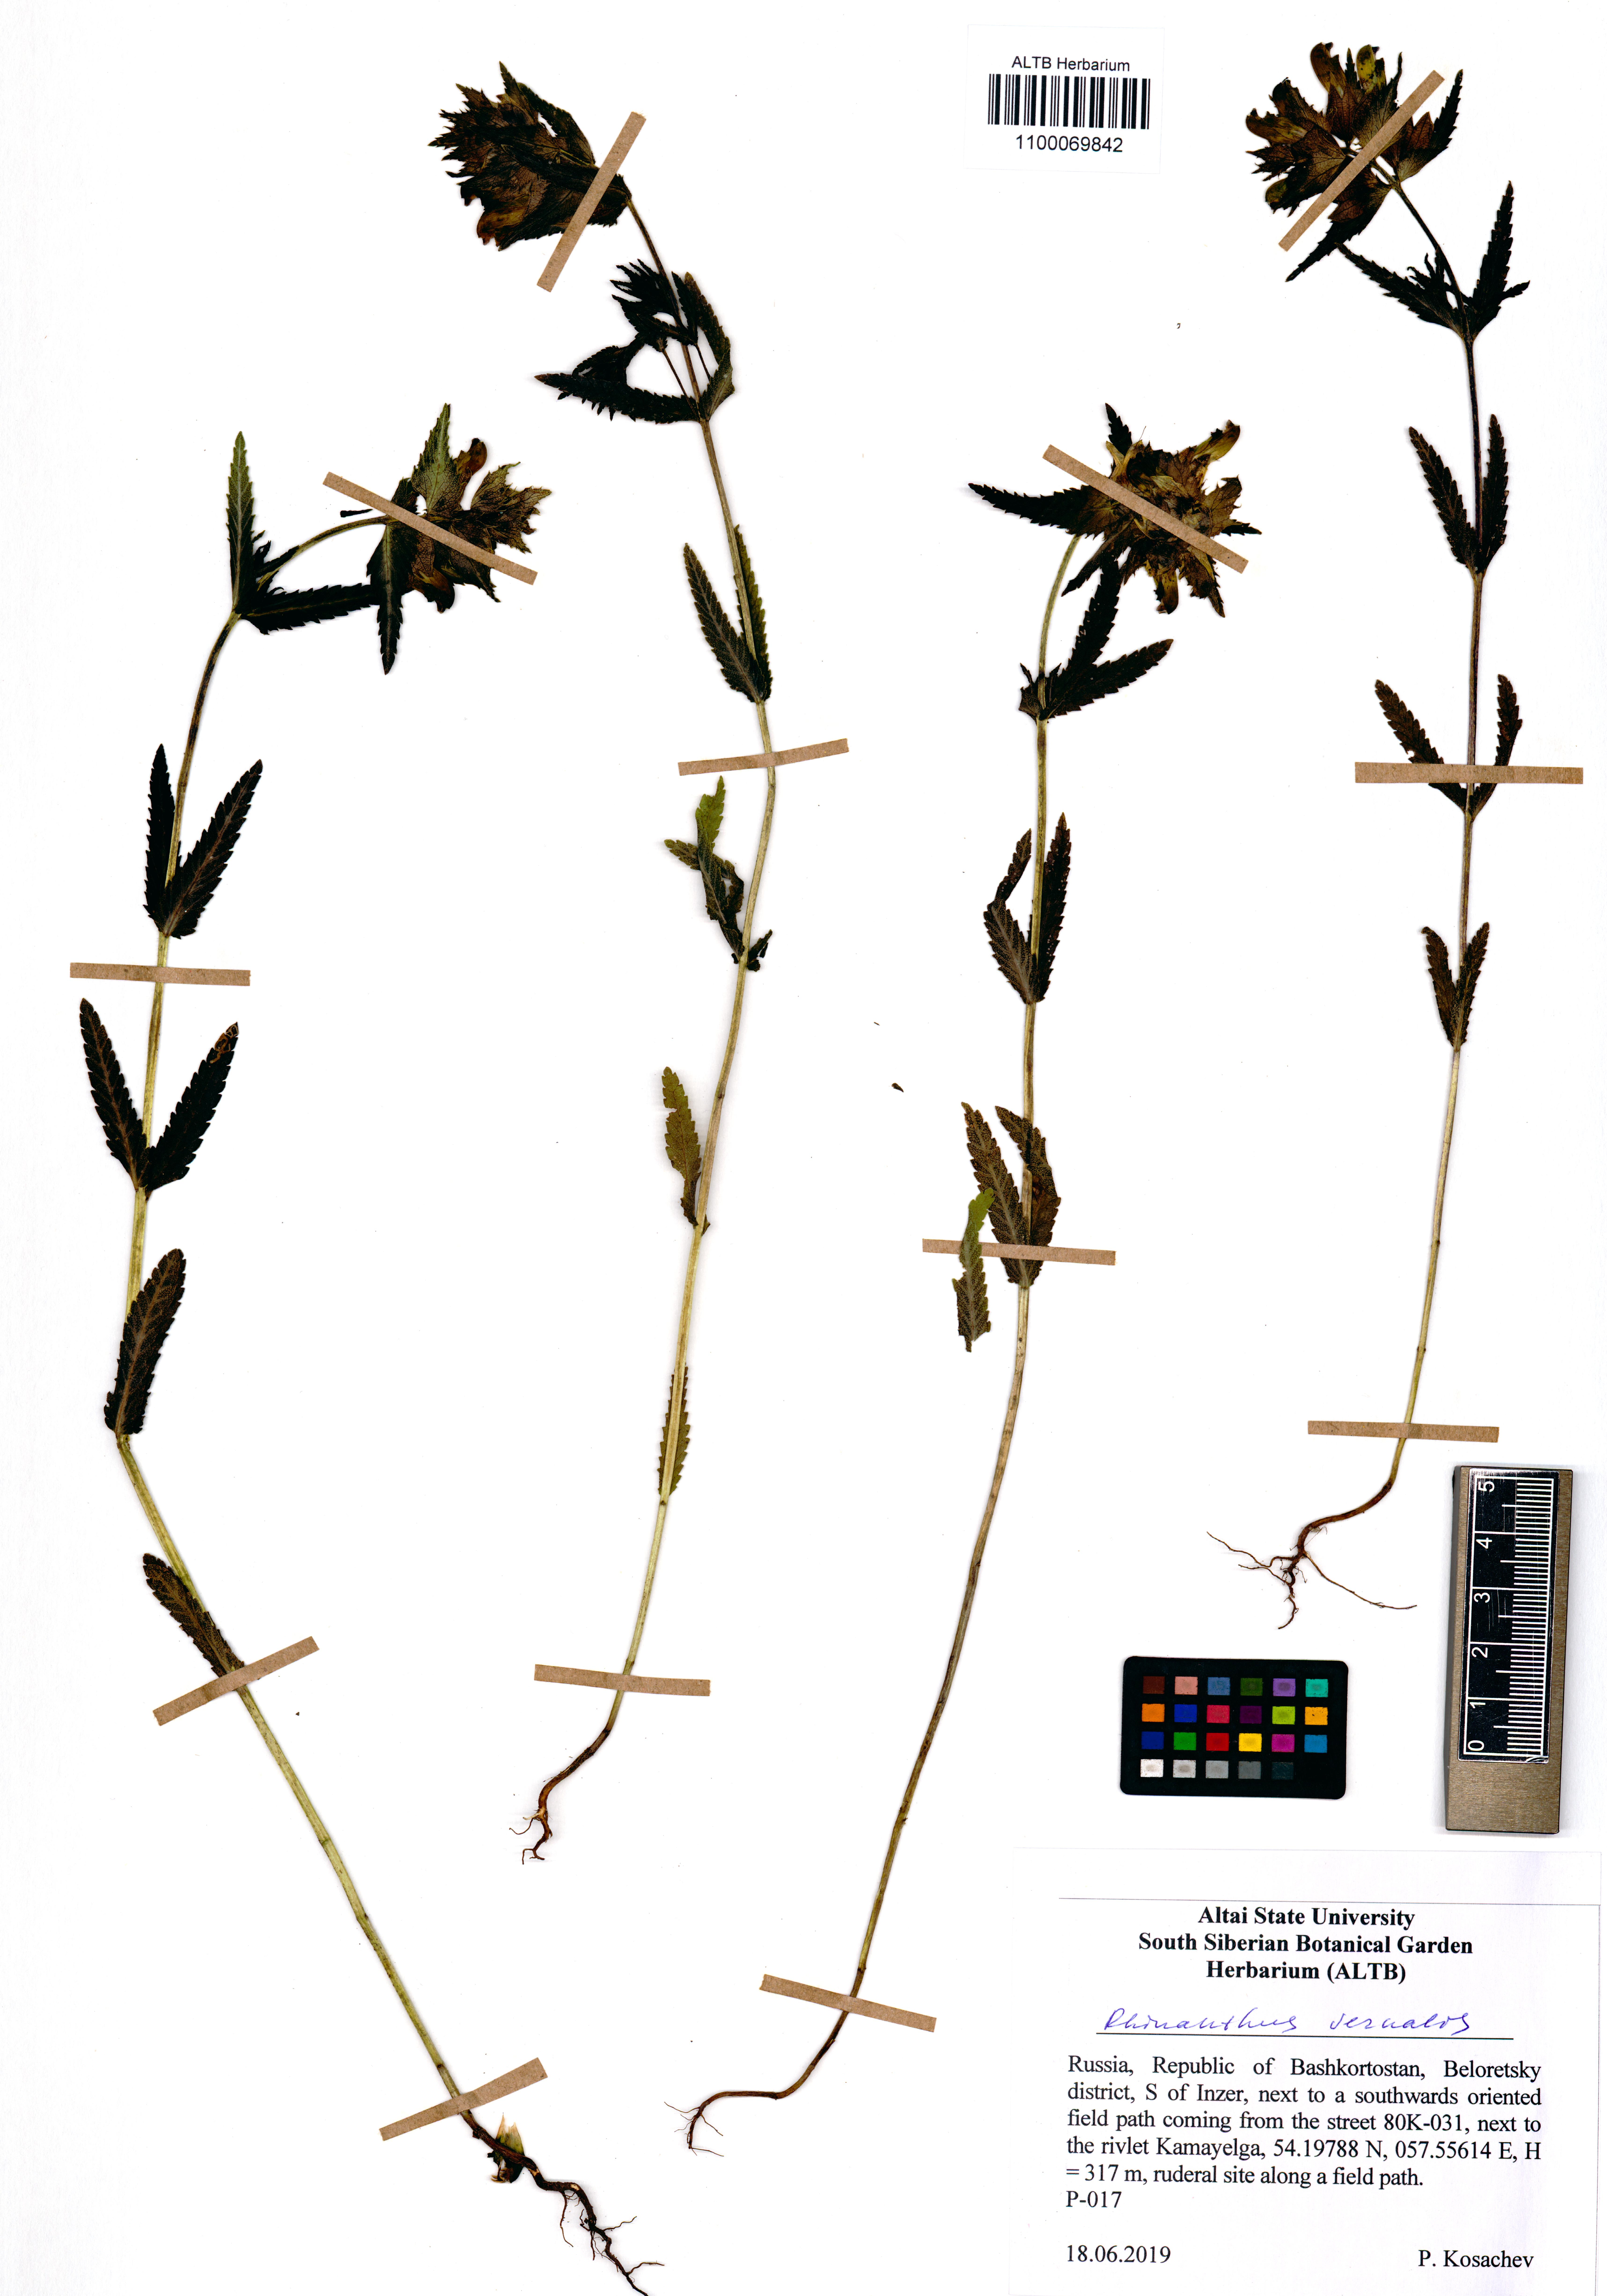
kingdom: Plantae
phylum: Tracheophyta
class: Magnoliopsida
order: Lamiales
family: Orobanchaceae
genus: Rhinanthus
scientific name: Rhinanthus serotinus
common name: Late-flowering yellow rattle
